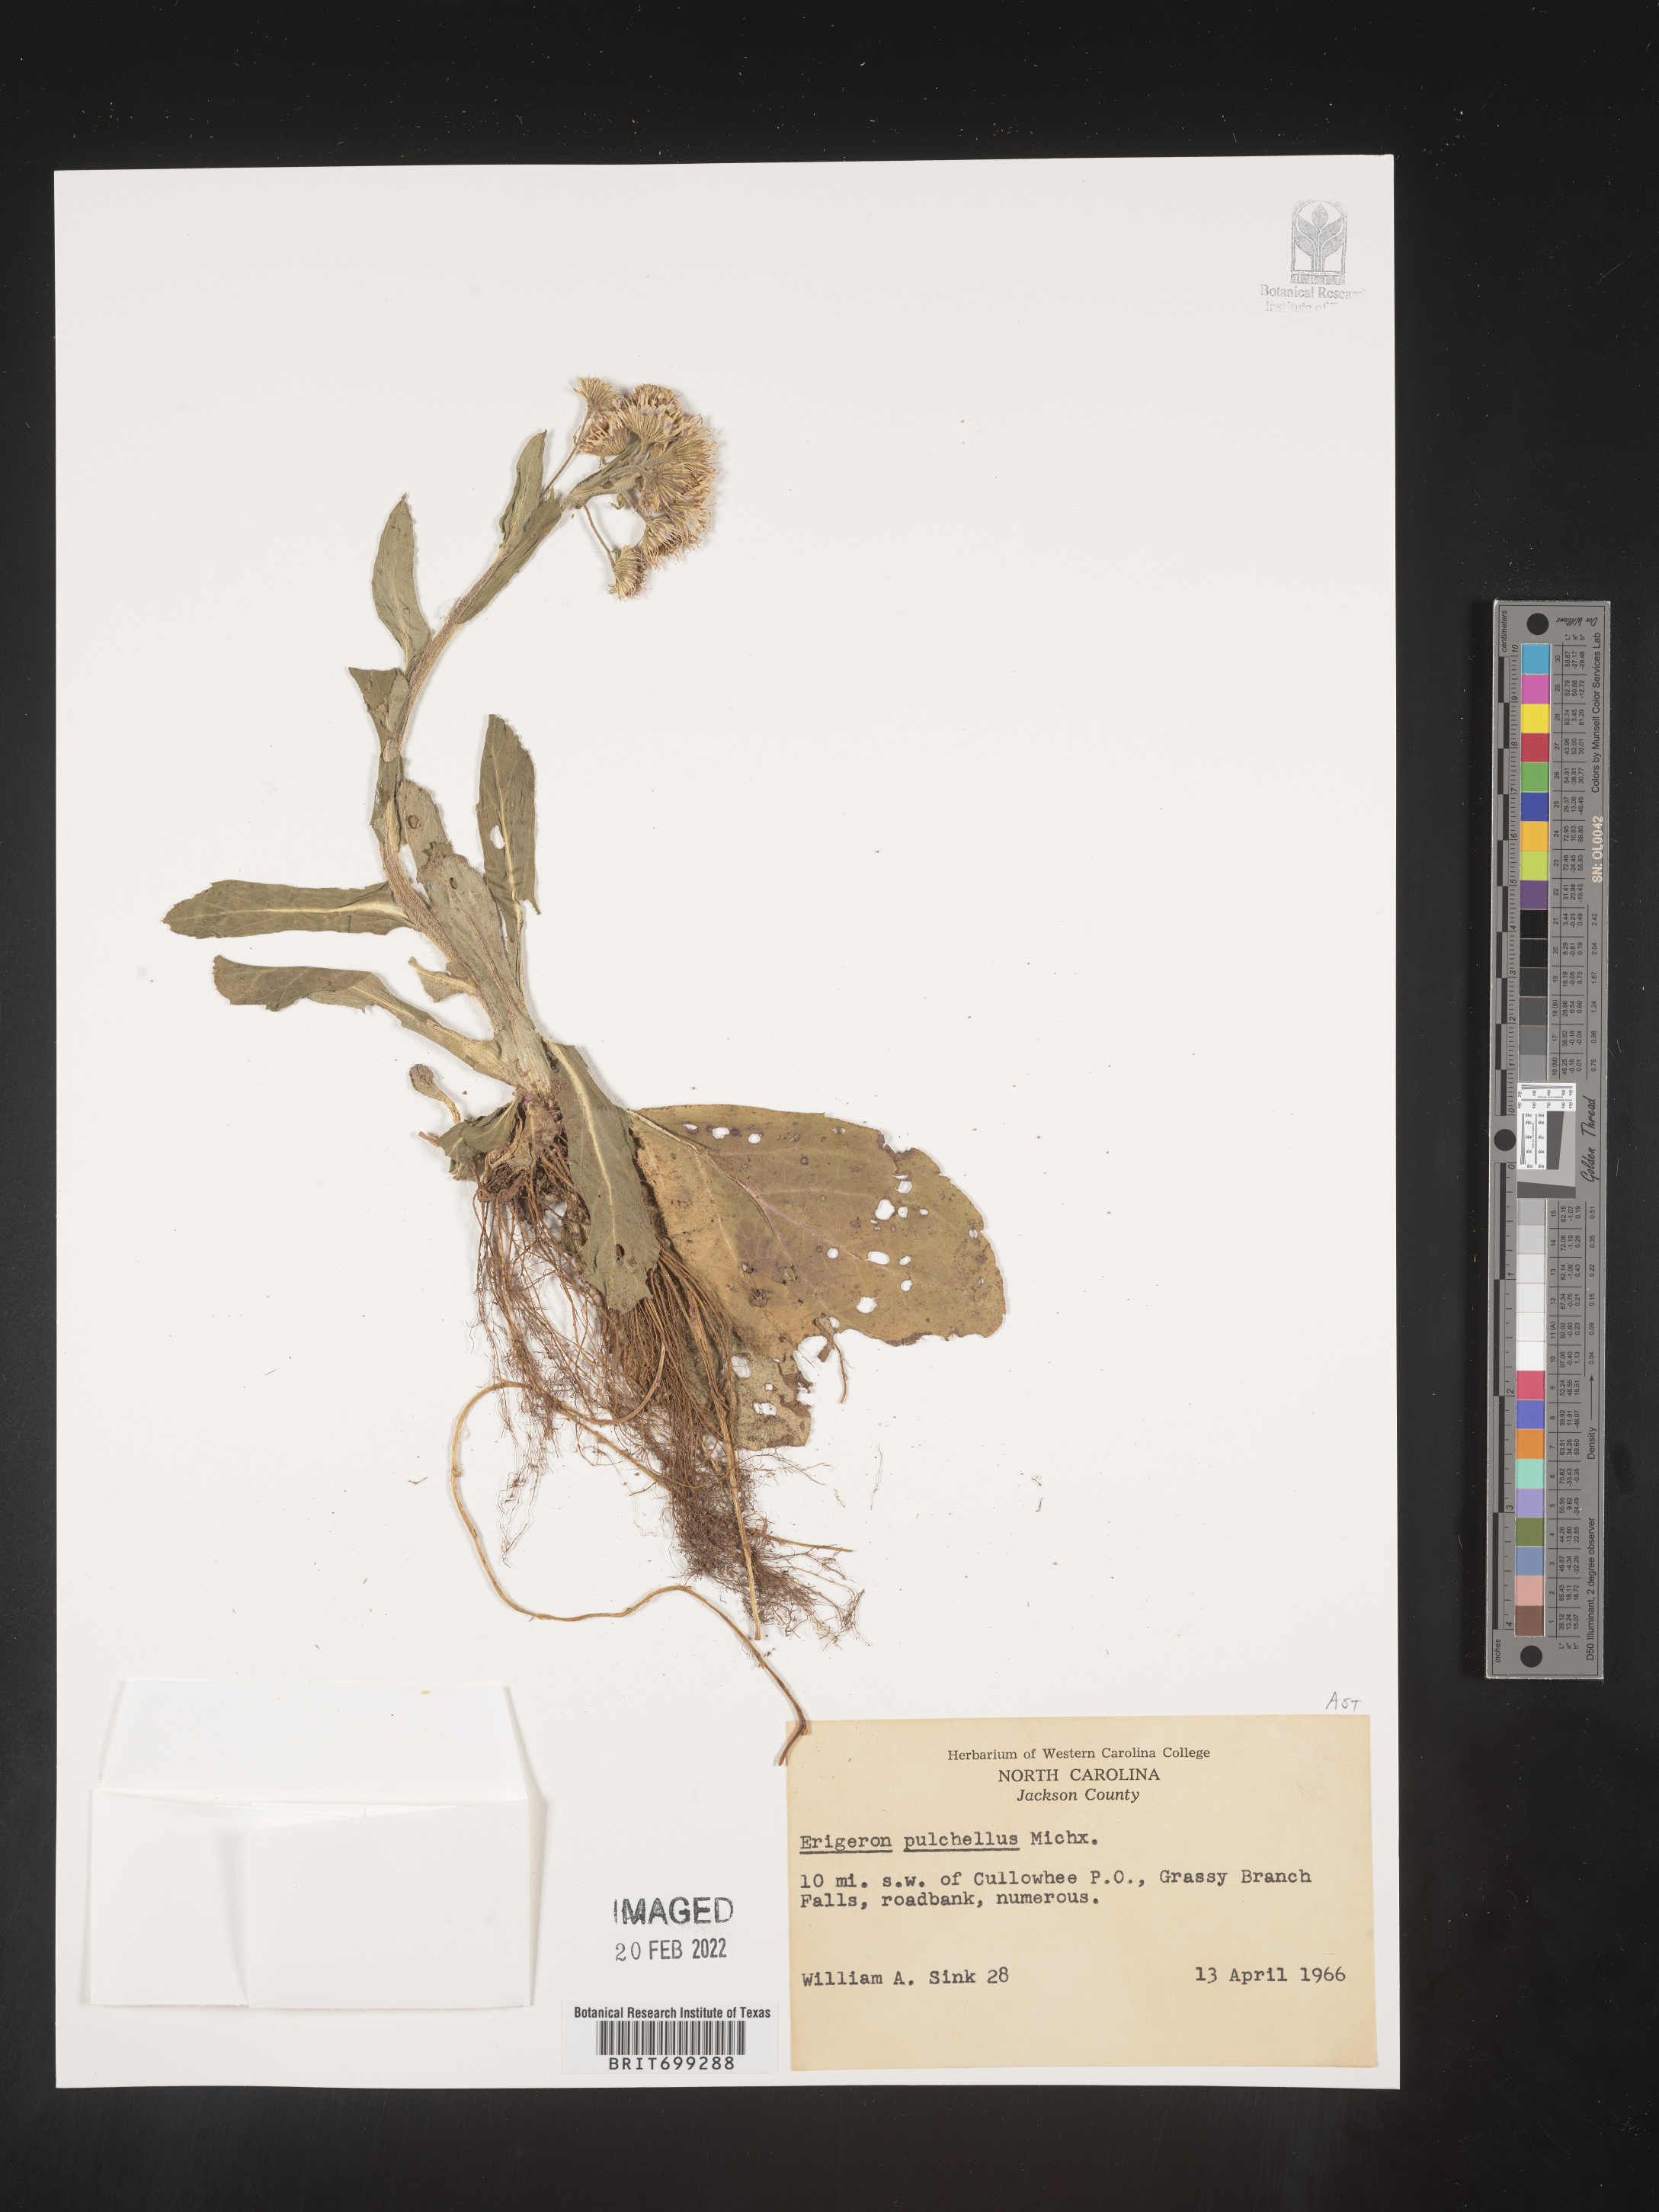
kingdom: Plantae
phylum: Tracheophyta
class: Magnoliopsida
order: Asterales
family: Asteraceae
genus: Erigeron
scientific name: Erigeron pulchellus
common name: Hairy fleabane
